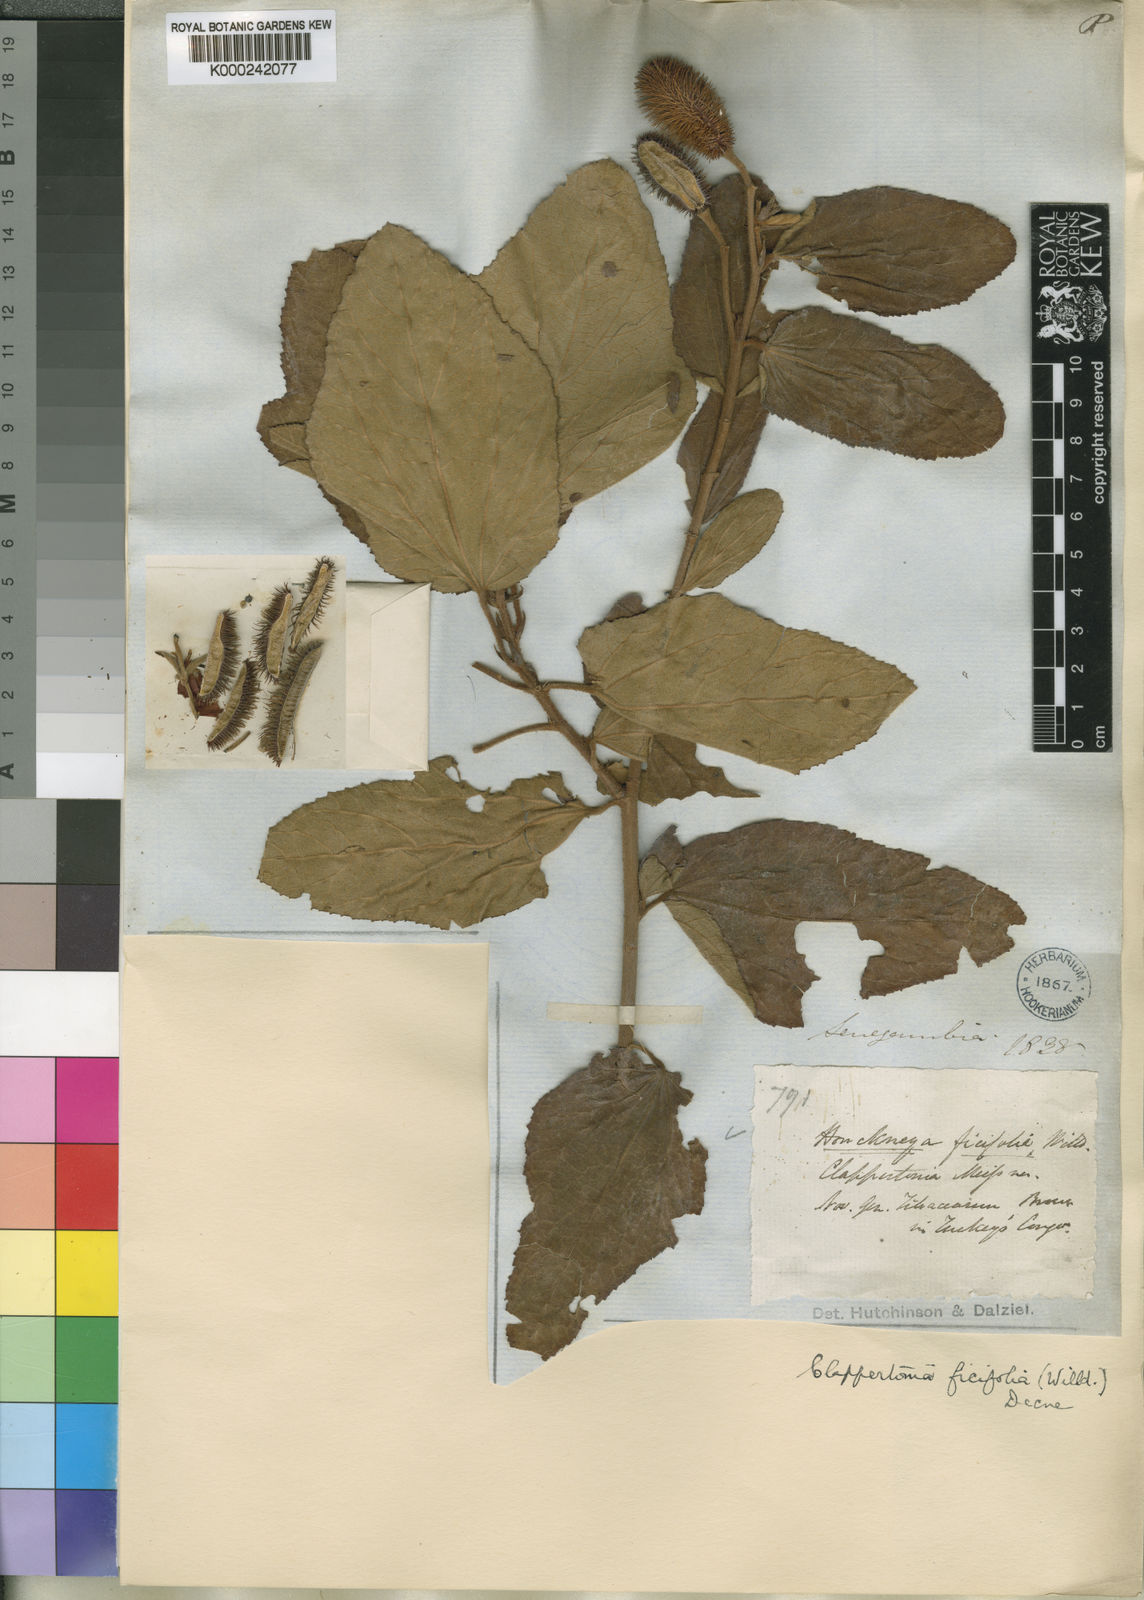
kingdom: Plantae
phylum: Tracheophyta
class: Magnoliopsida
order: Malvales
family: Malvaceae
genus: Clappertonia
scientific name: Clappertonia ficifolia
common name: Bolo-bolo
